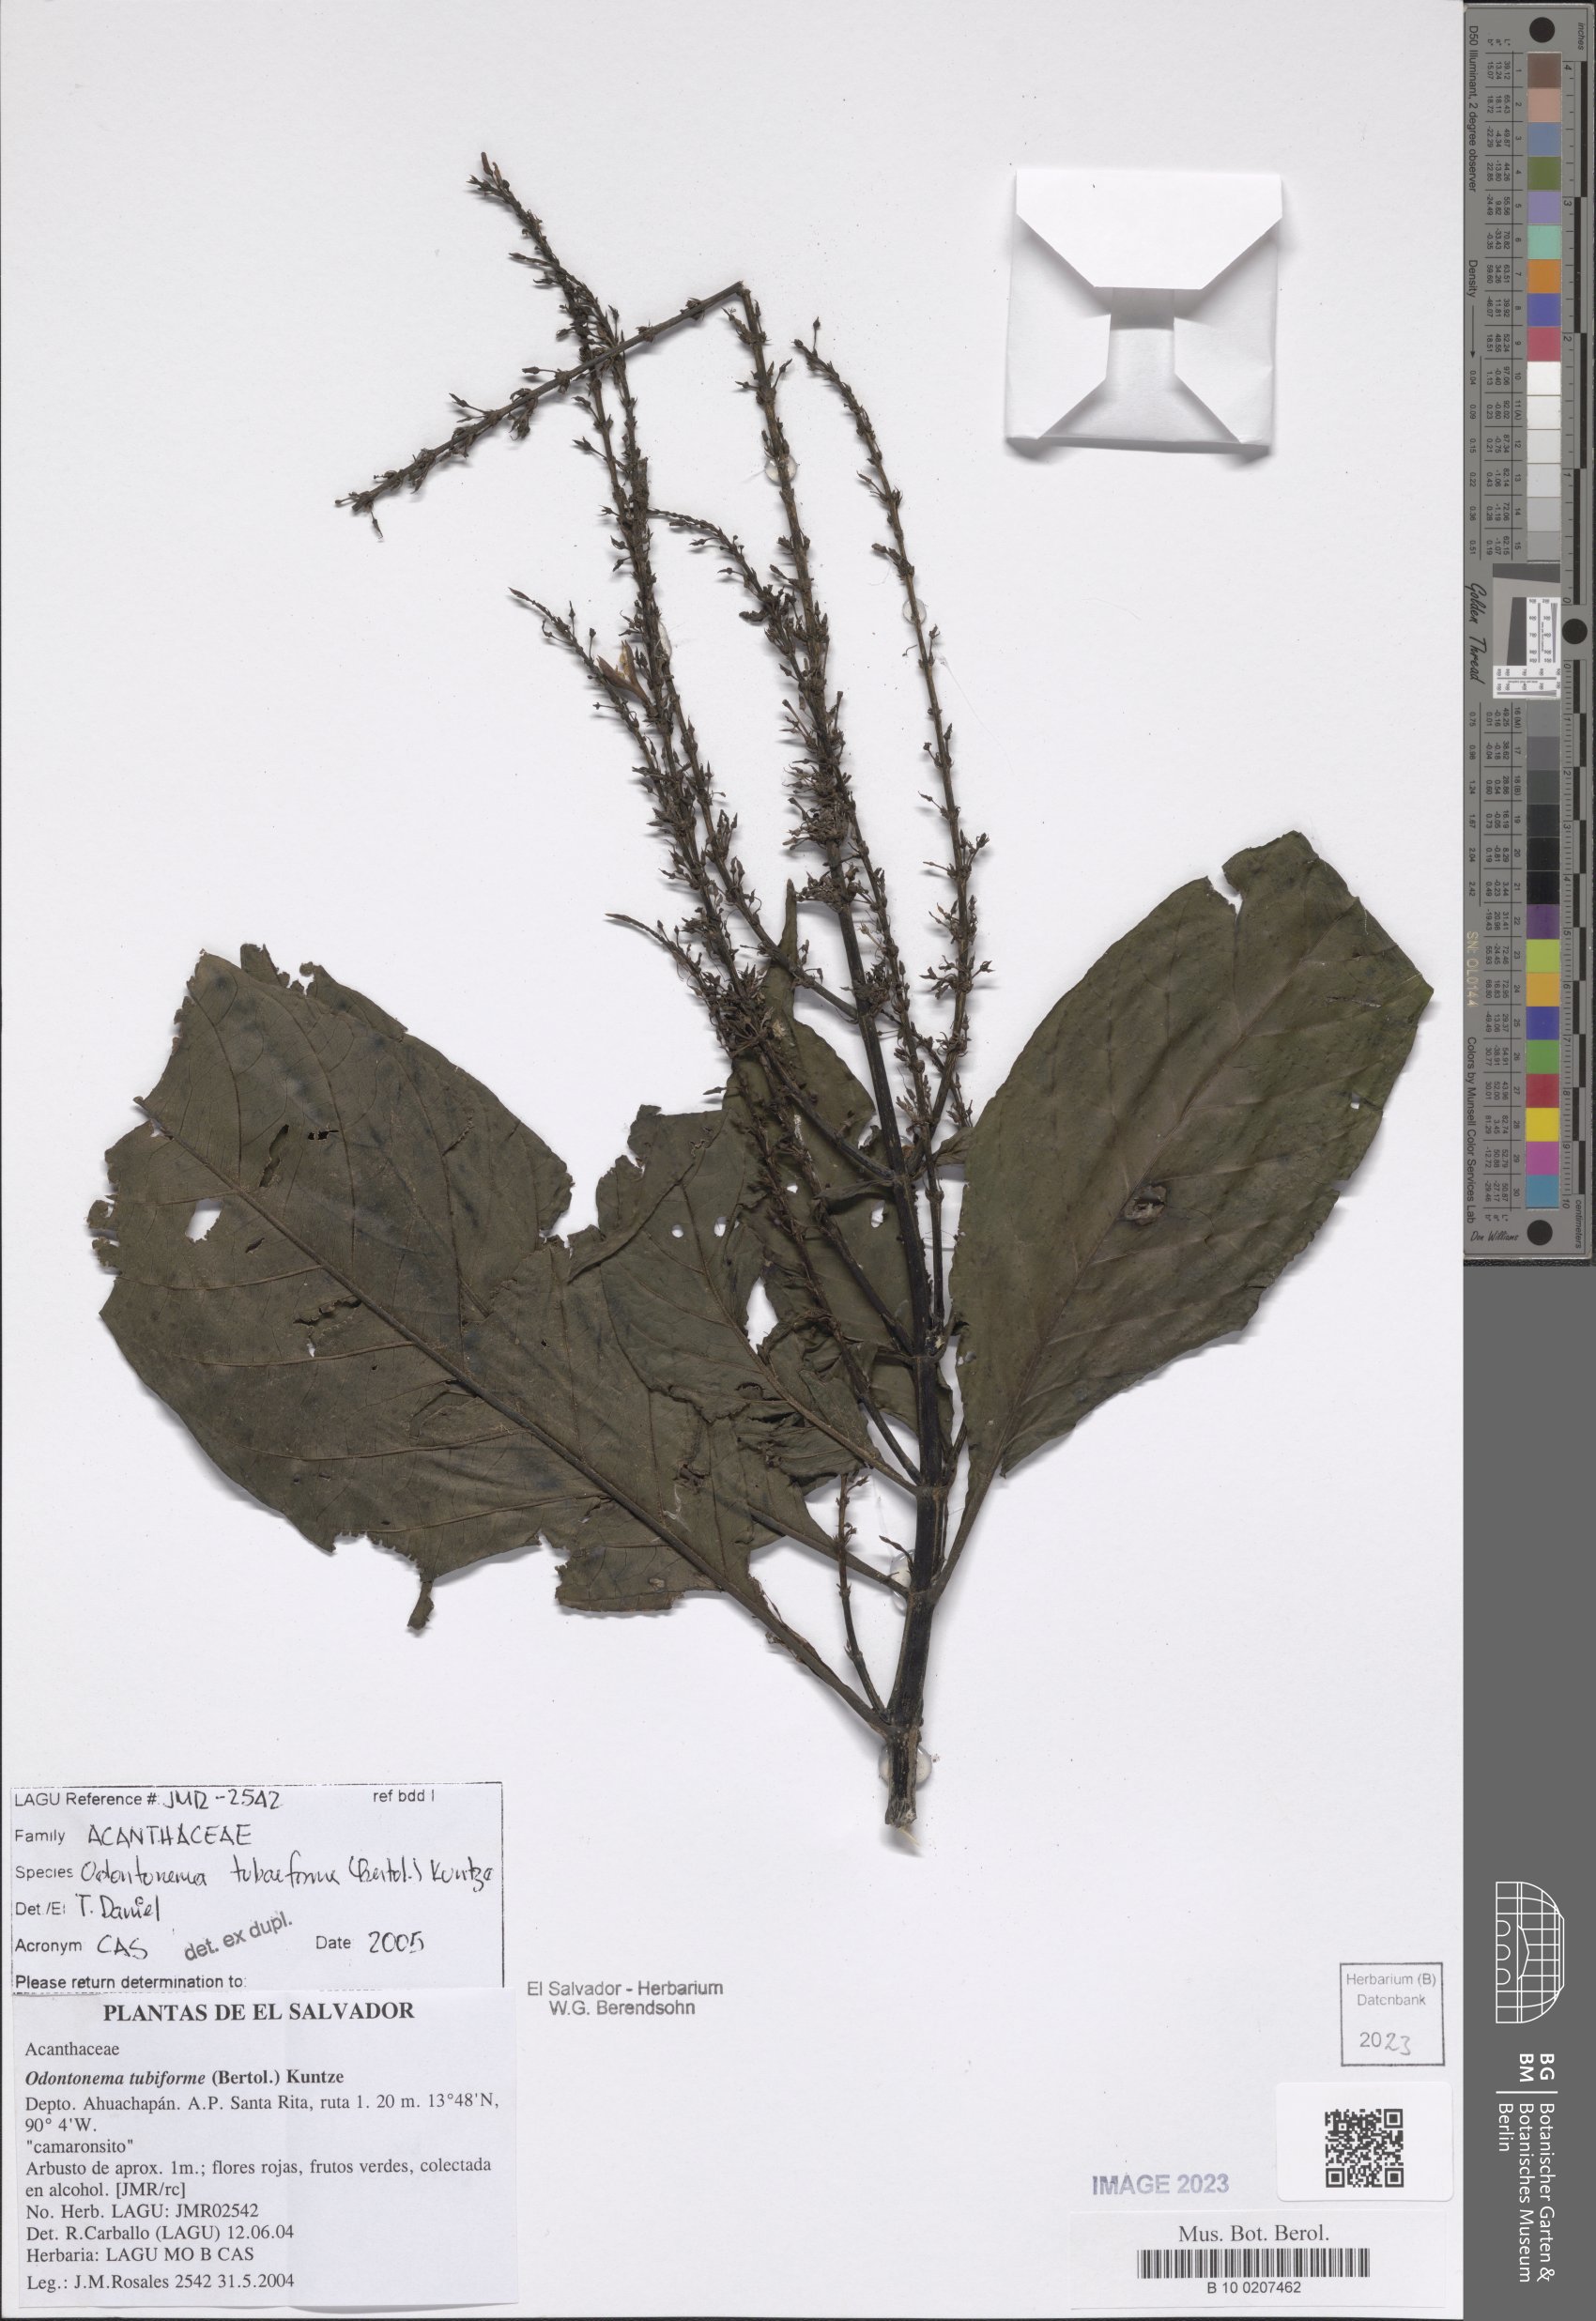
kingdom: Plantae
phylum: Tracheophyta
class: Magnoliopsida
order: Lamiales
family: Acanthaceae
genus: Odontonema
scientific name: Odontonema tubaeforme
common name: Firespike
